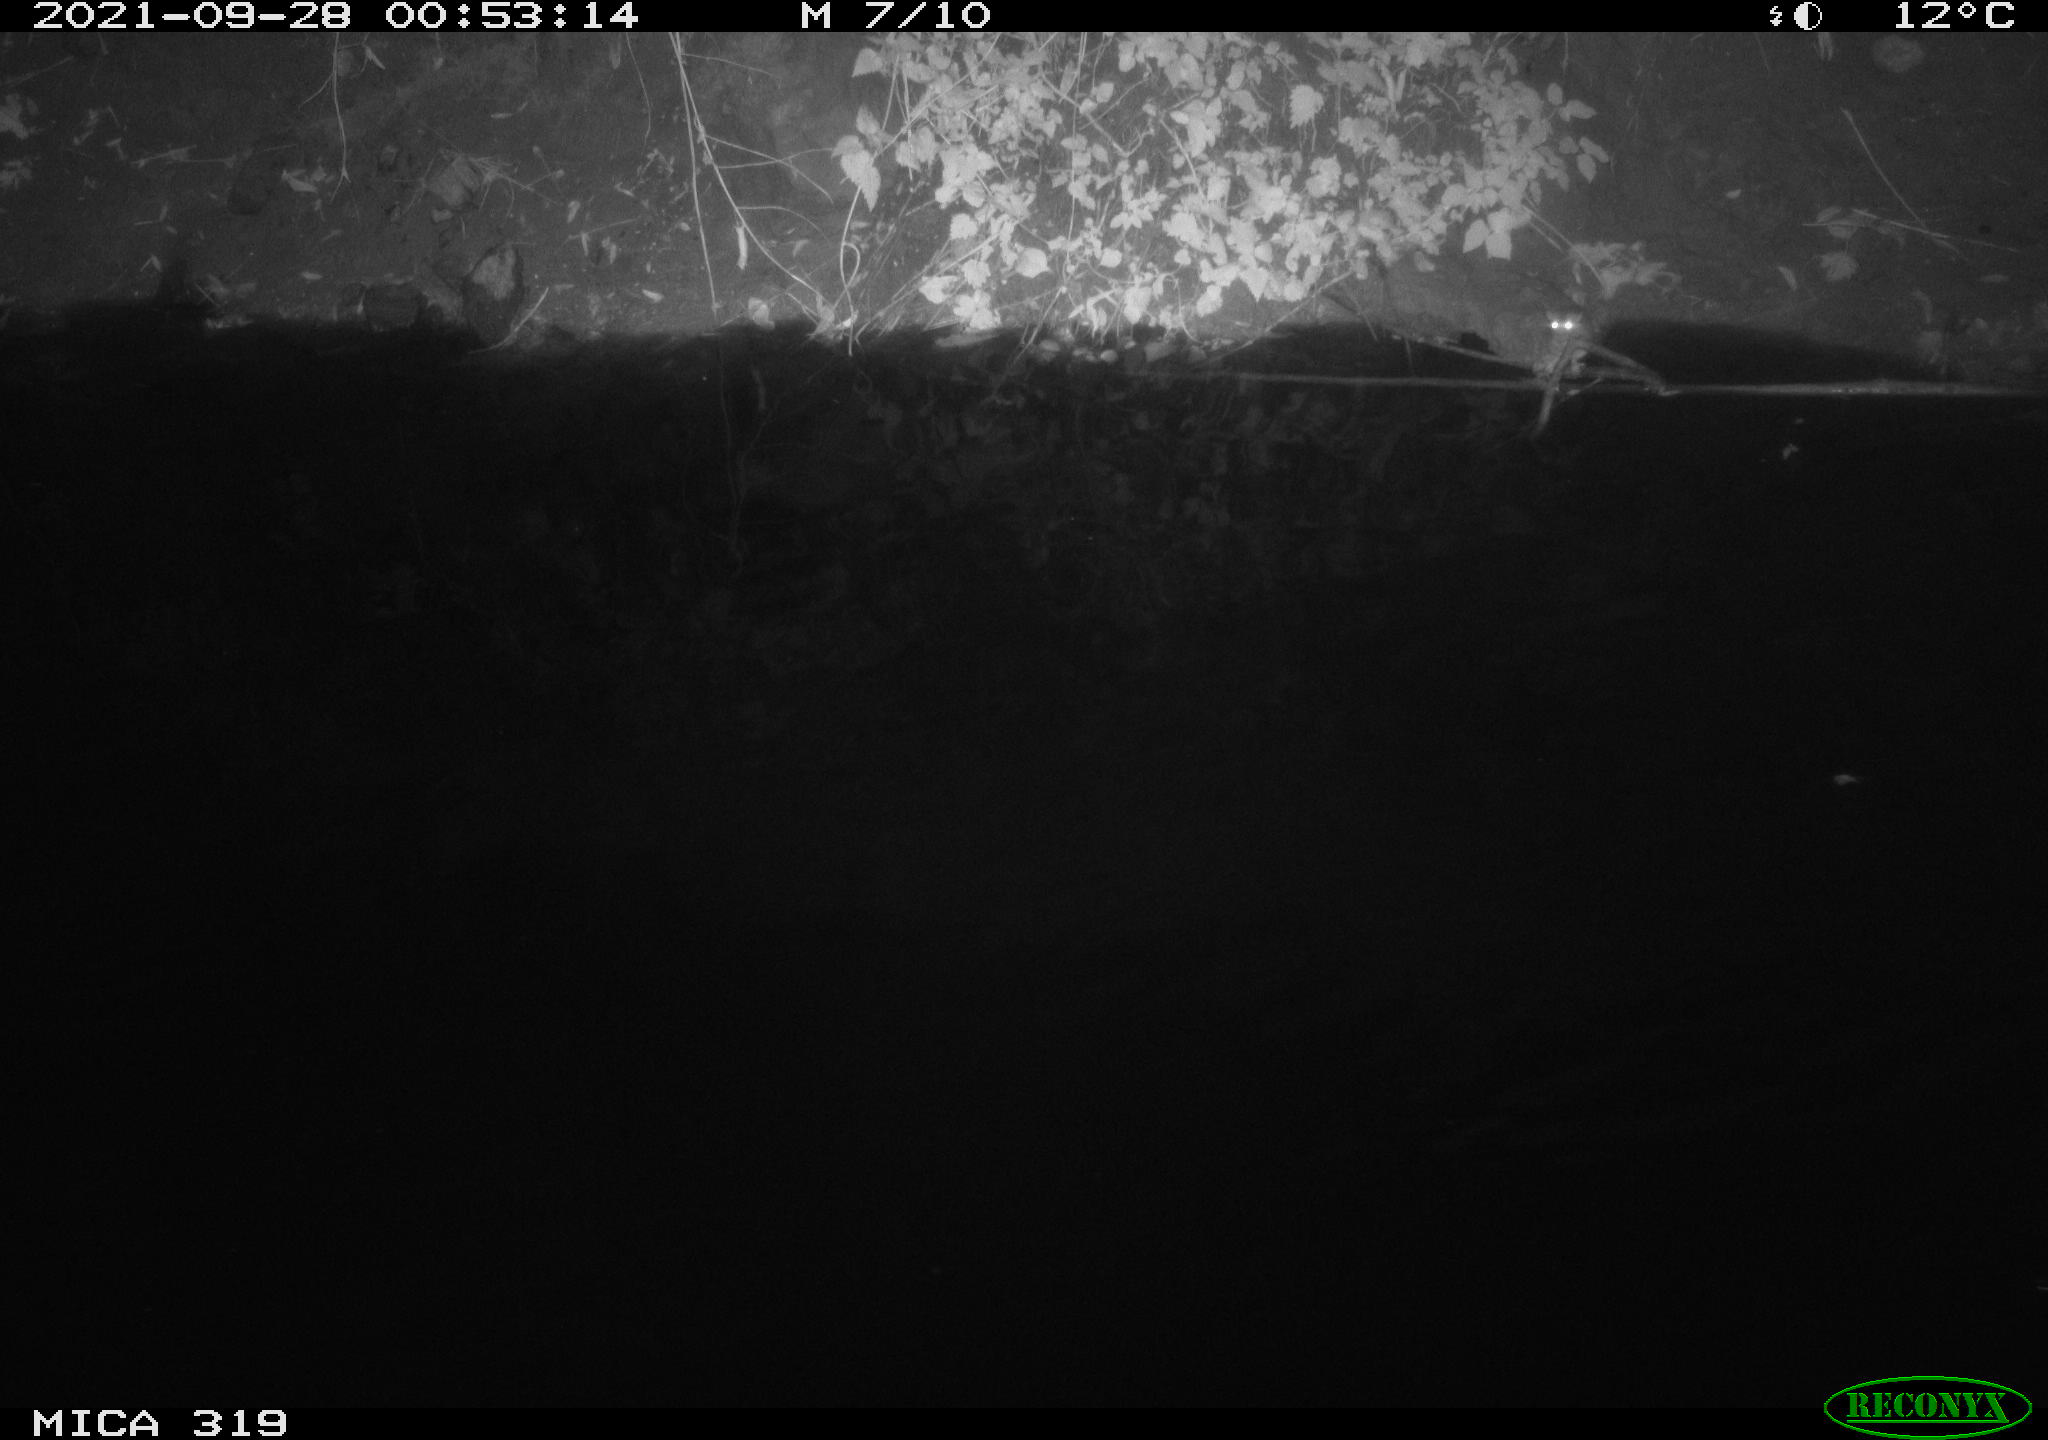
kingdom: Animalia
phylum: Chordata
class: Aves
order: Anseriformes
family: Anatidae
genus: Anas
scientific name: Anas platyrhynchos
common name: Mallard
